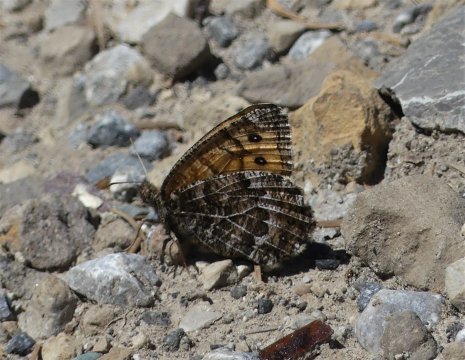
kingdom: Animalia
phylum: Arthropoda
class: Insecta
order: Lepidoptera
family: Nymphalidae
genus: Oeneis
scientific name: Oeneis chryxus
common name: Chryxus Arctic
